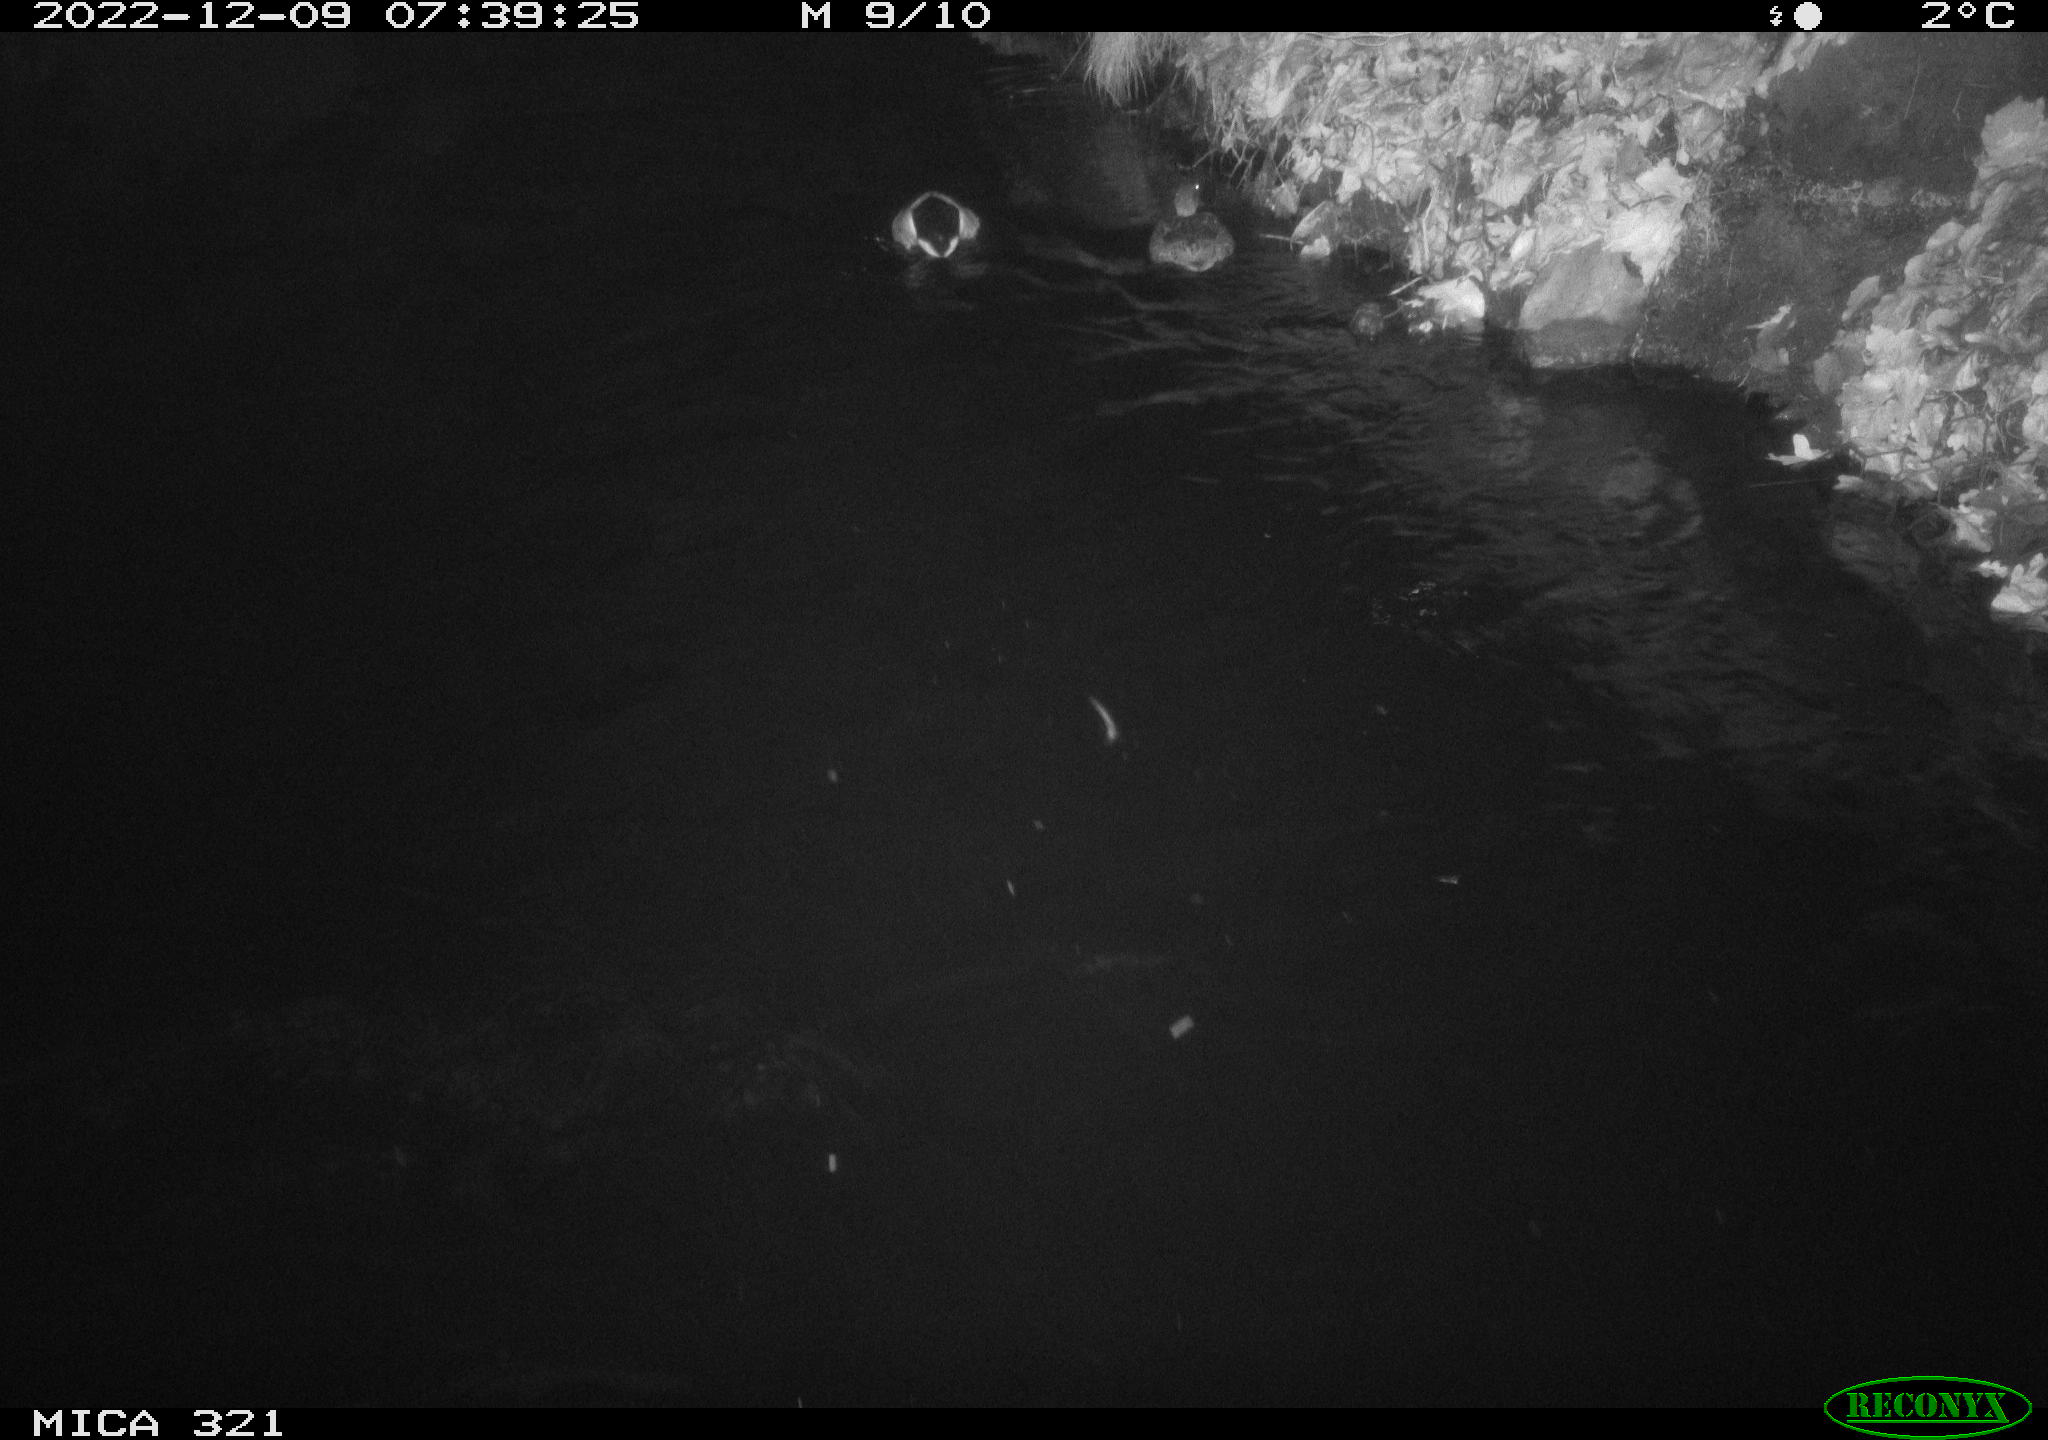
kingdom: Animalia
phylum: Chordata
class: Aves
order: Anseriformes
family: Anatidae
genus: Anas
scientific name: Anas
